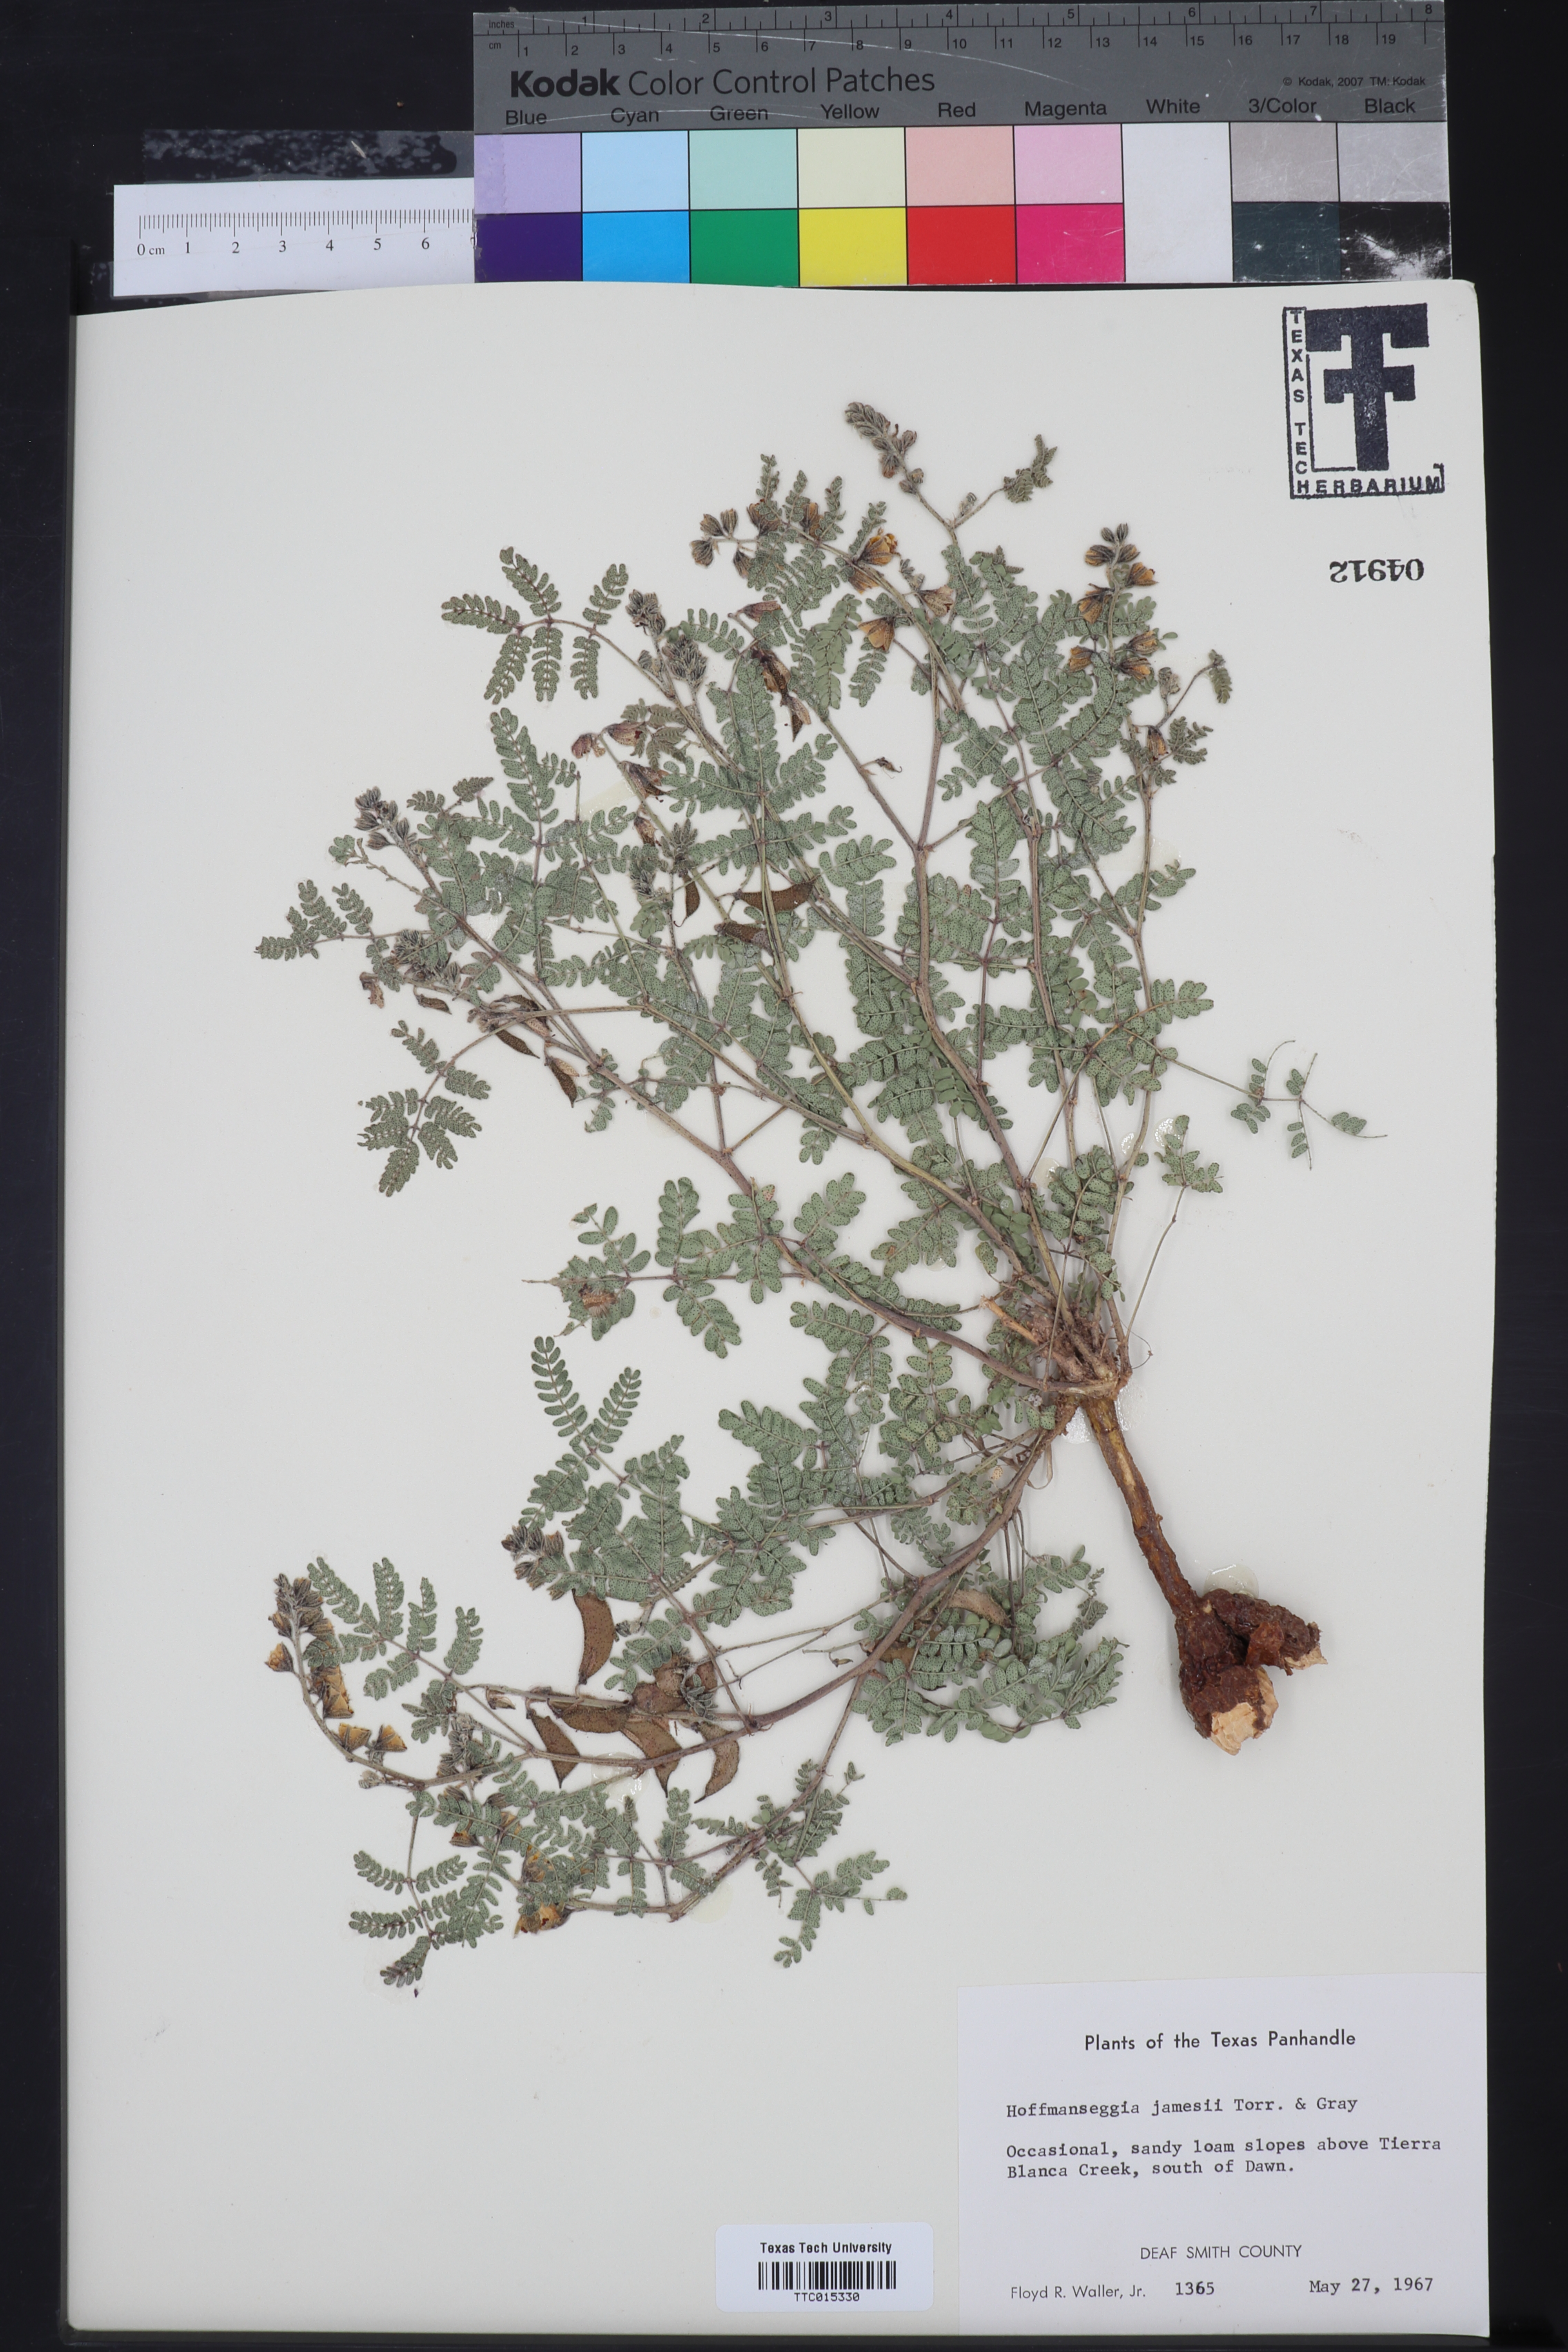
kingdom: Plantae
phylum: Tracheophyta
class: Magnoliopsida
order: Fabales
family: Fabaceae
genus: Pomaria
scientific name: Pomaria jamesii
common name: James' caesalpinia
